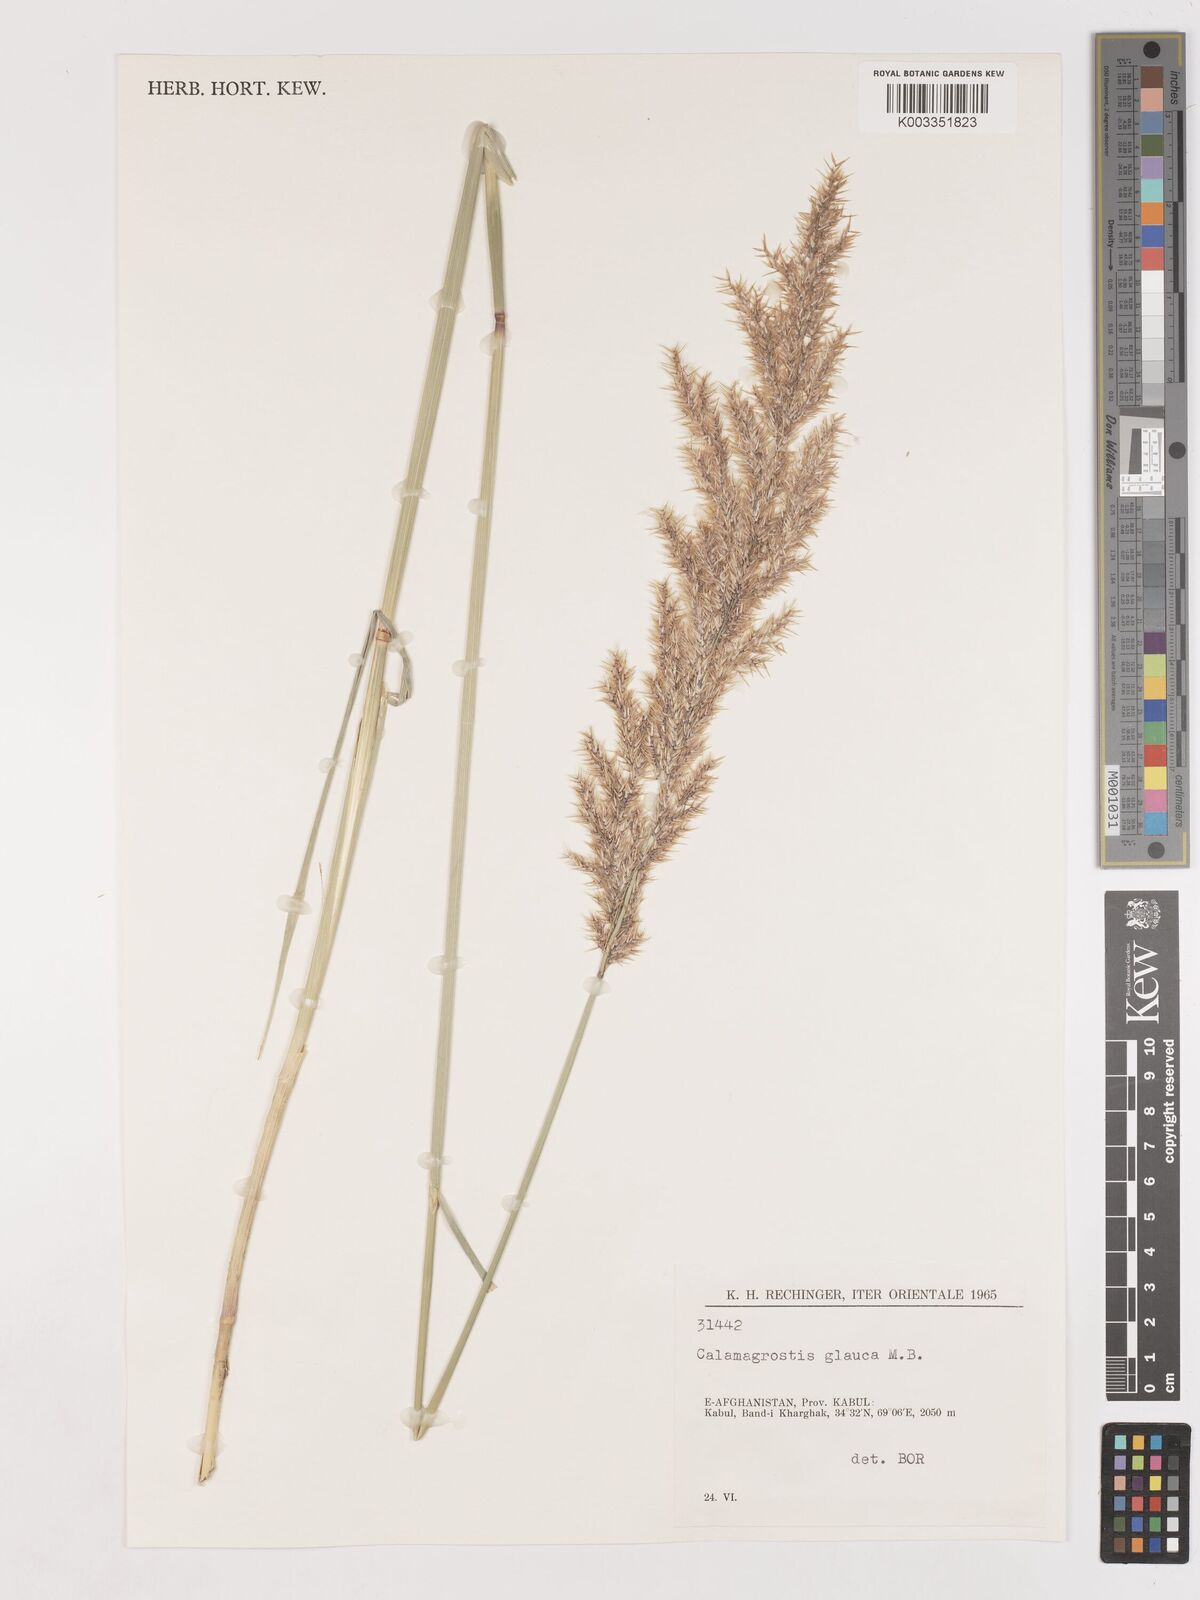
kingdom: Plantae
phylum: Tracheophyta
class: Liliopsida
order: Poales
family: Poaceae
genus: Calamagrostis
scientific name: Calamagrostis pseudophragmites
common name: Coastal small-reed
